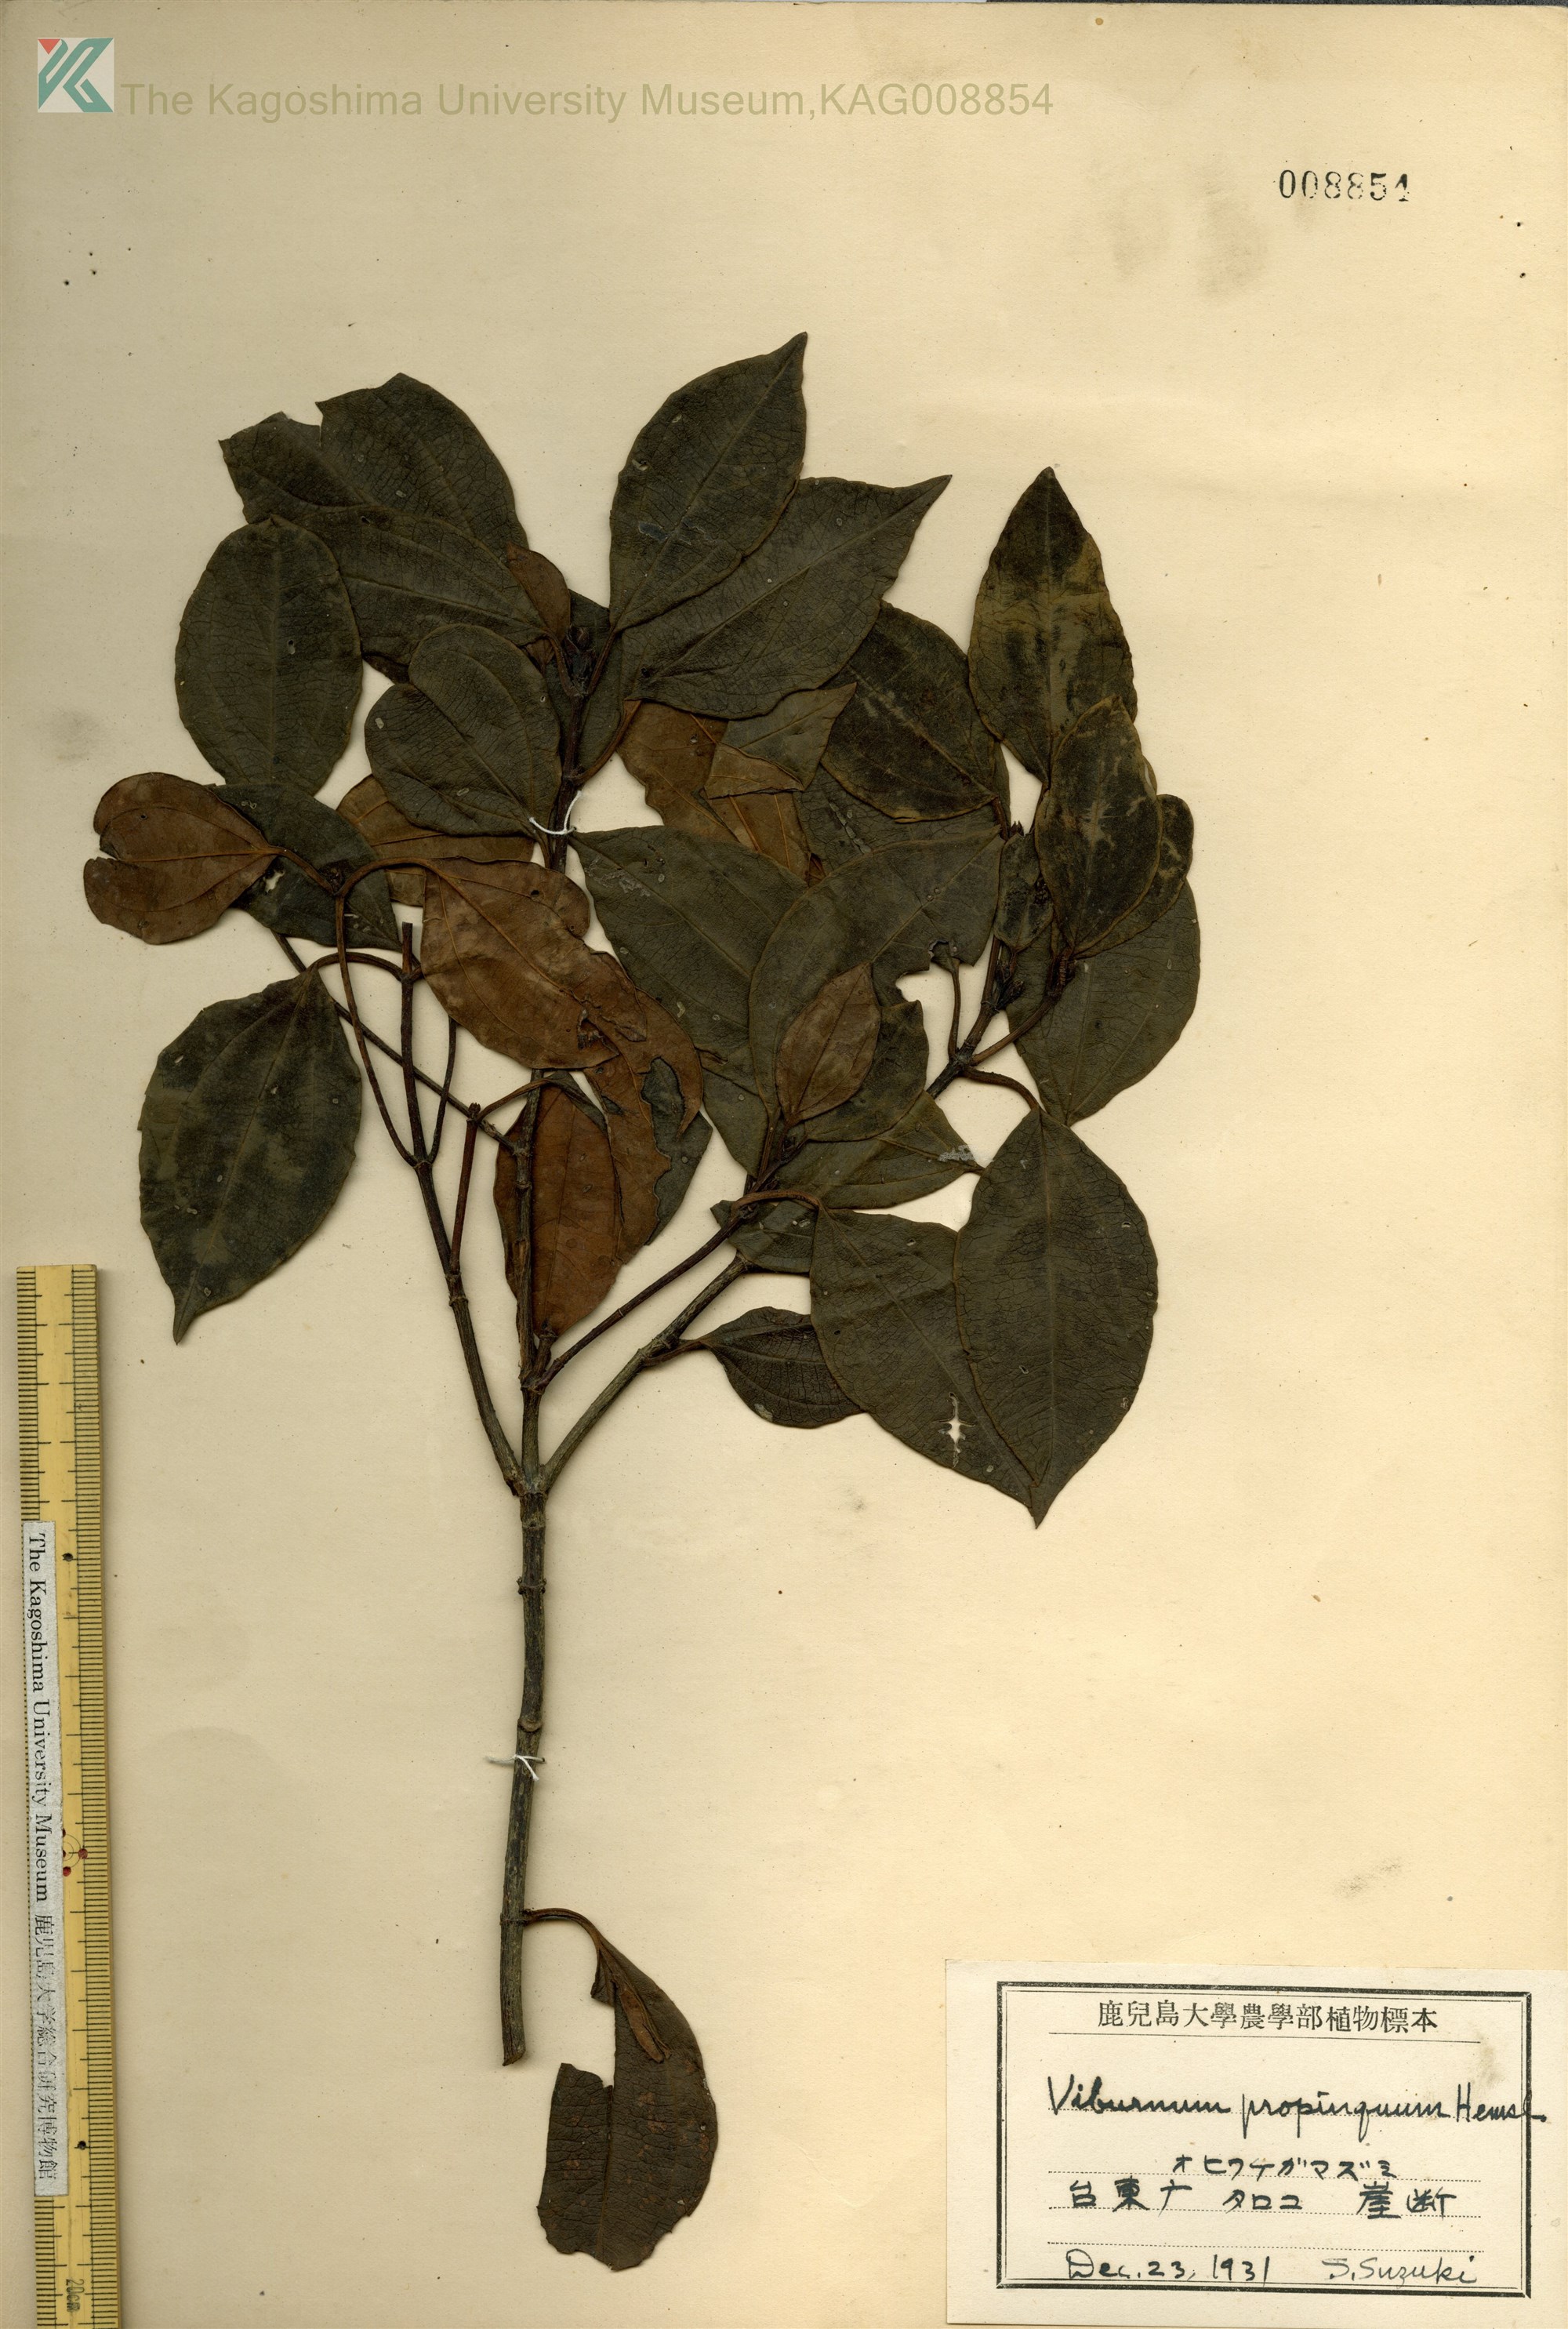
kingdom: Plantae
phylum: Tracheophyta
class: Magnoliopsida
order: Dipsacales
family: Viburnaceae
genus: Viburnum
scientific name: Viburnum propinquum
